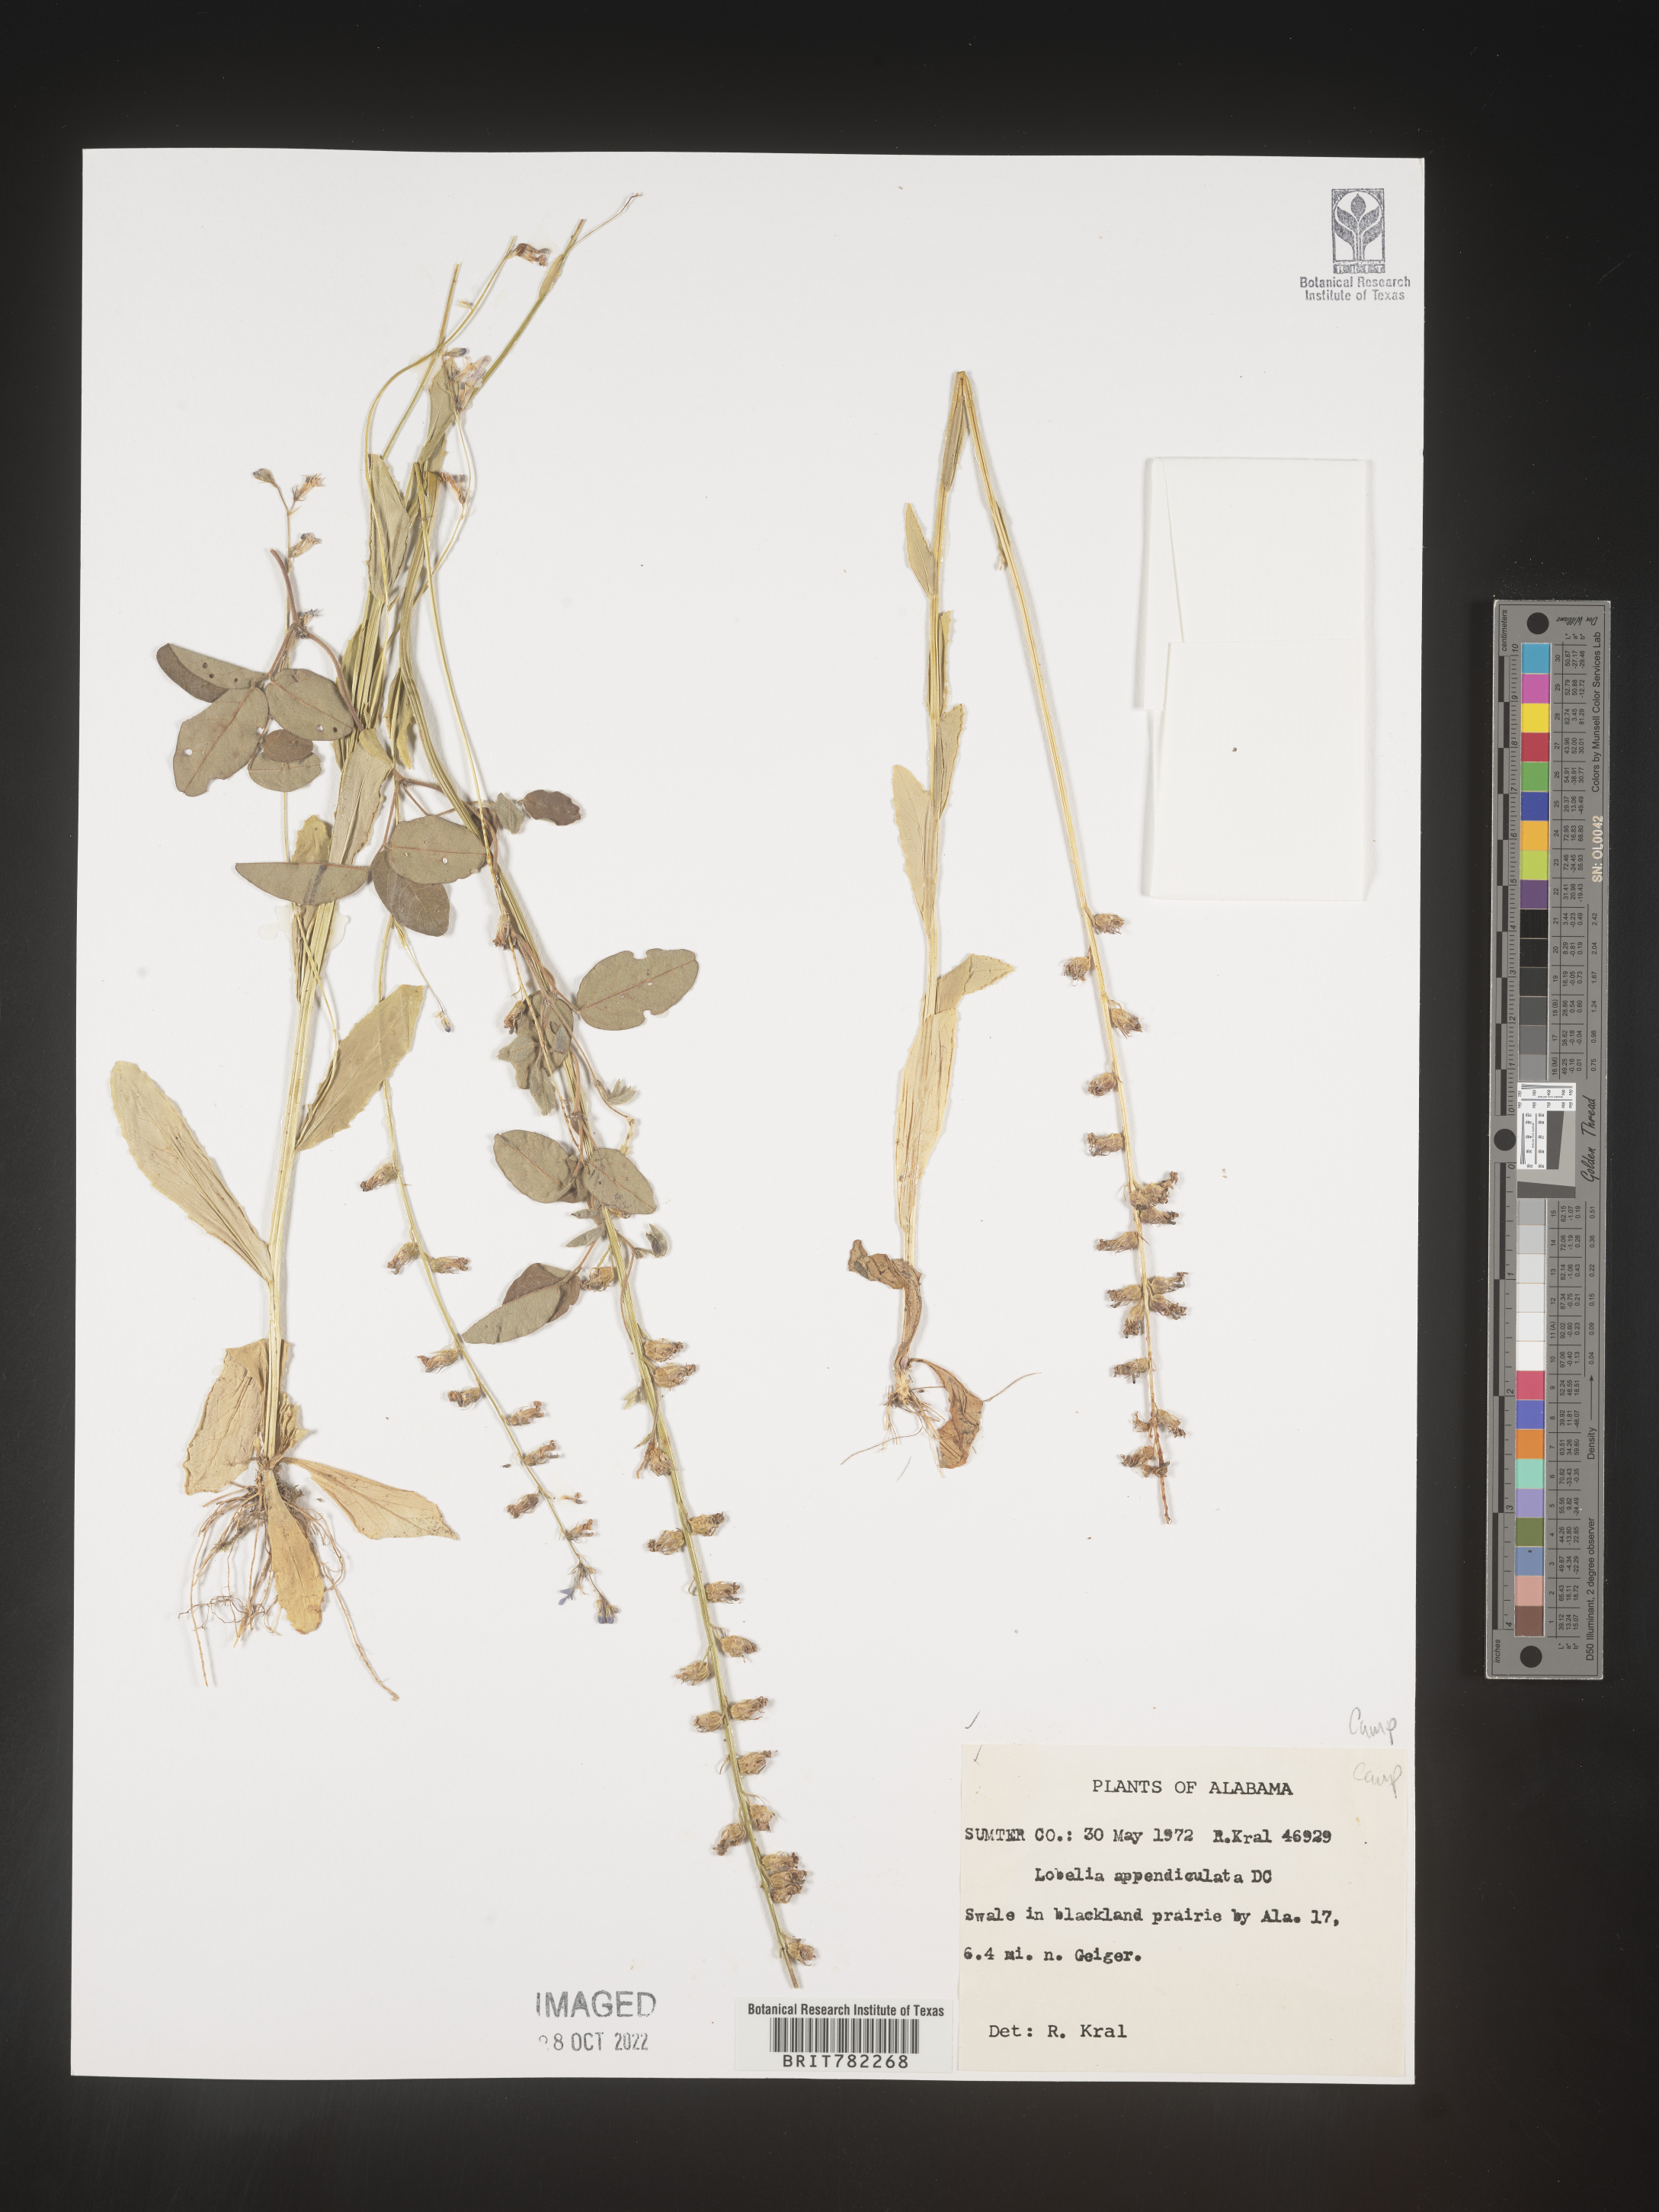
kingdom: Plantae
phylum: Tracheophyta
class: Magnoliopsida
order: Asterales
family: Campanulaceae
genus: Lobelia
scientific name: Lobelia appendiculata
